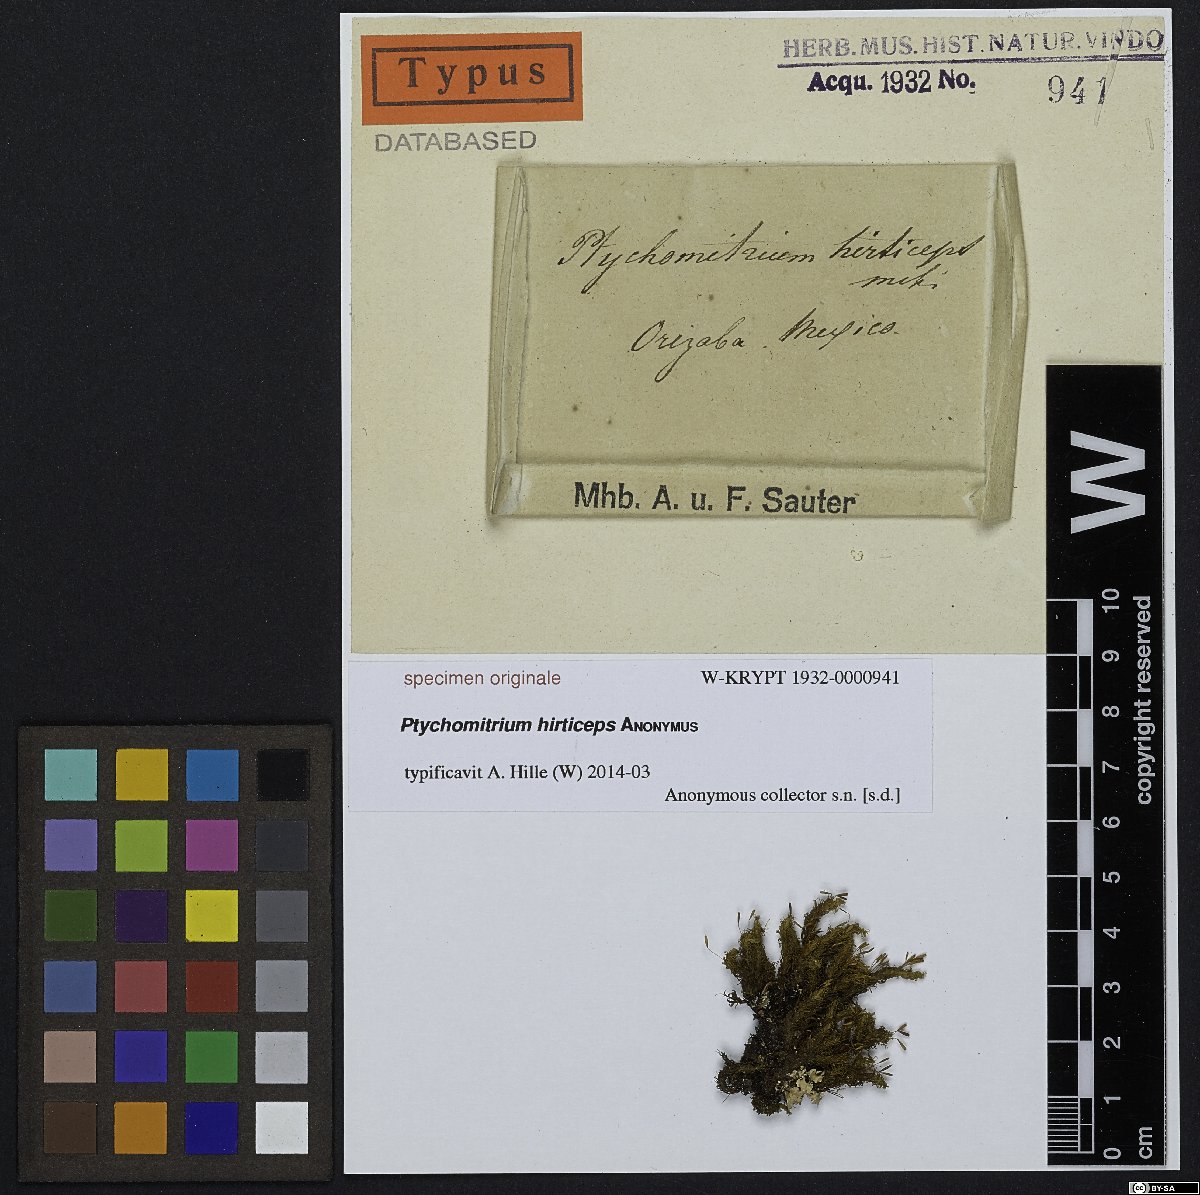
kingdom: Plantae
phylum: Bryophyta
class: Bryopsida
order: Grimmiales
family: Ptychomitriaceae
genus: Ptychomitrium
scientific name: Ptychomitrium
